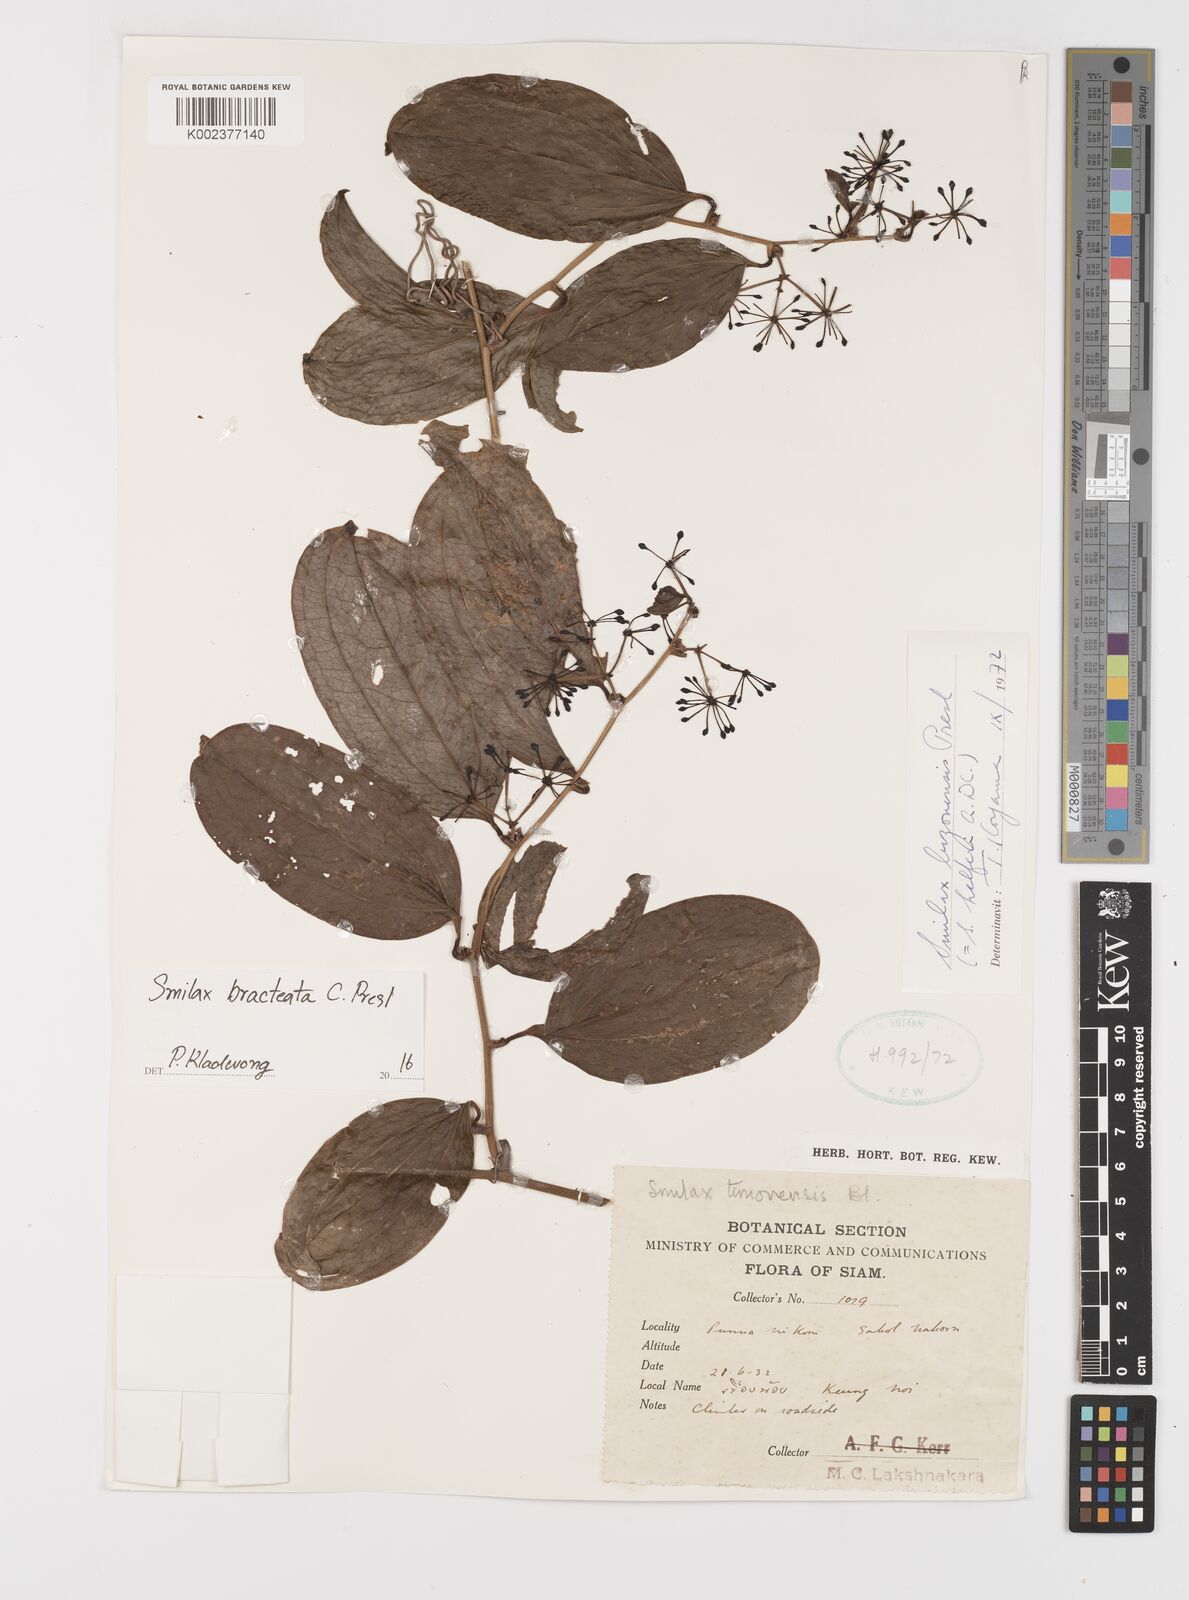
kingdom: Plantae
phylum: Tracheophyta
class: Liliopsida
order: Liliales
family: Smilacaceae
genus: Smilax
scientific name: Smilax bracteata
